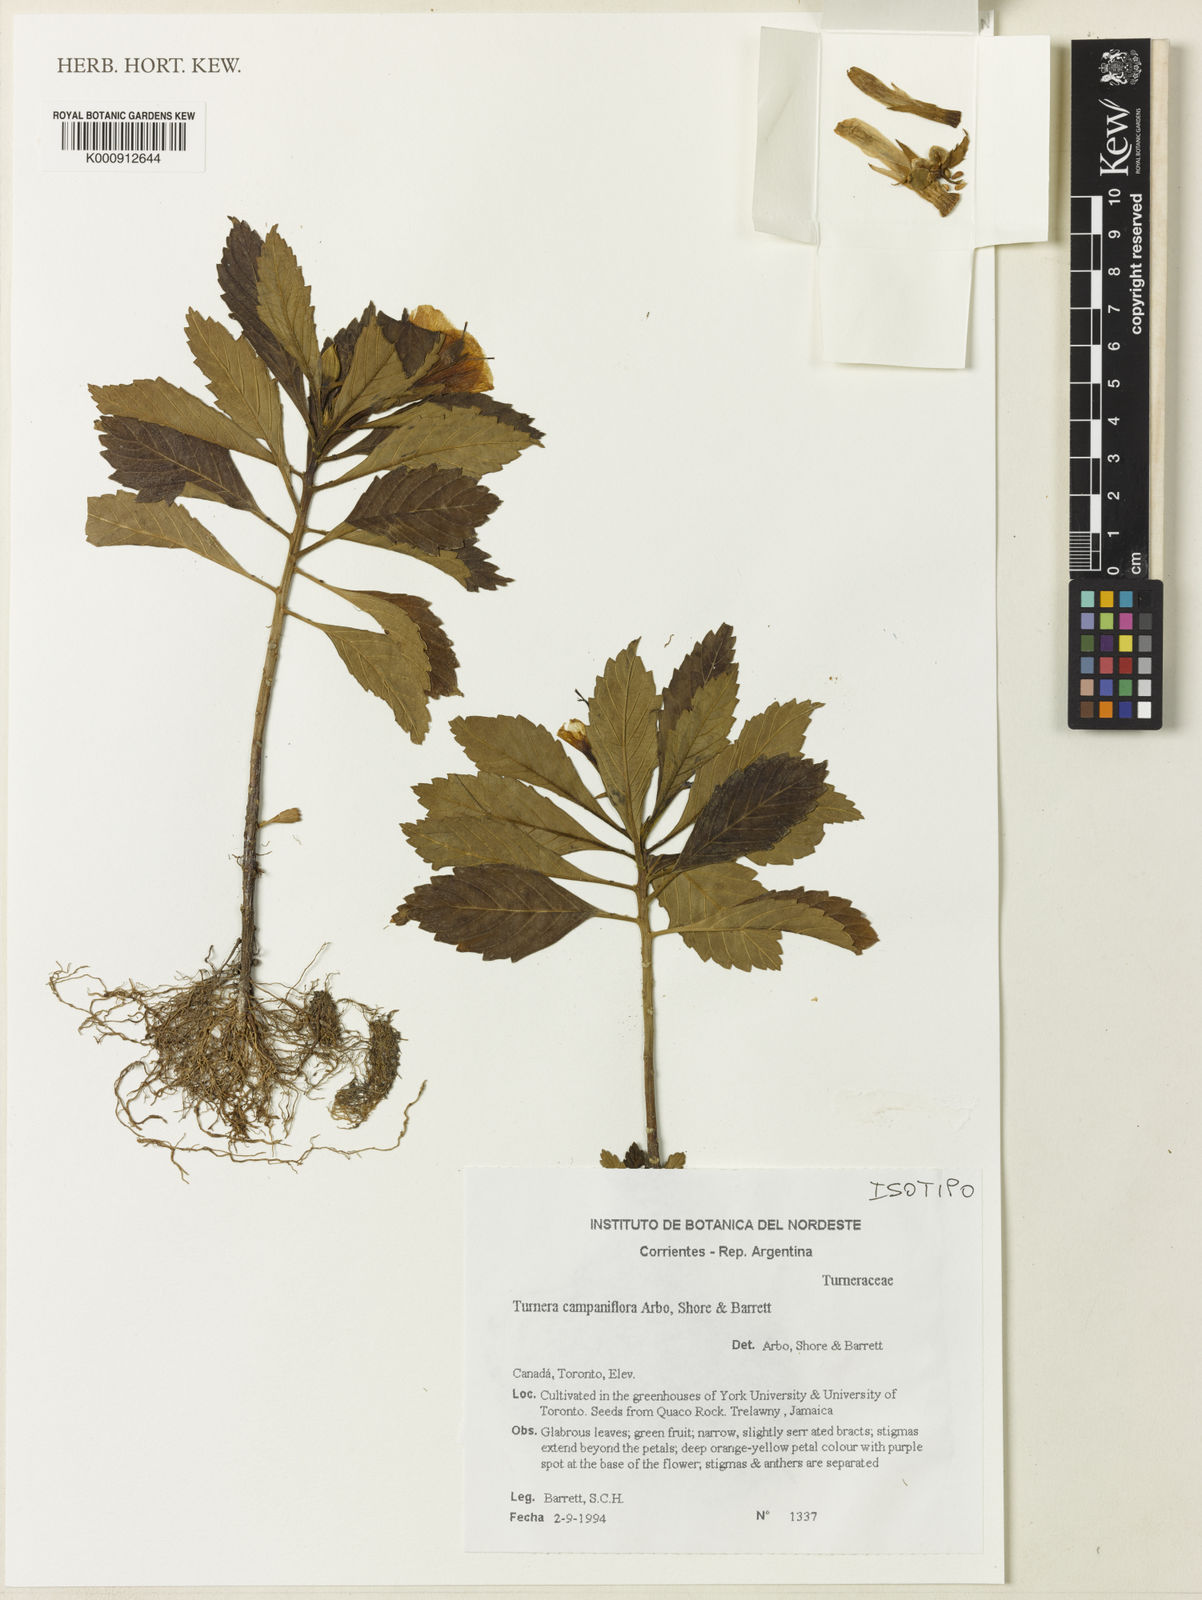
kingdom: Plantae
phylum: Tracheophyta
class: Magnoliopsida
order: Malpighiales
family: Turneraceae
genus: Turnera
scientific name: Turnera
